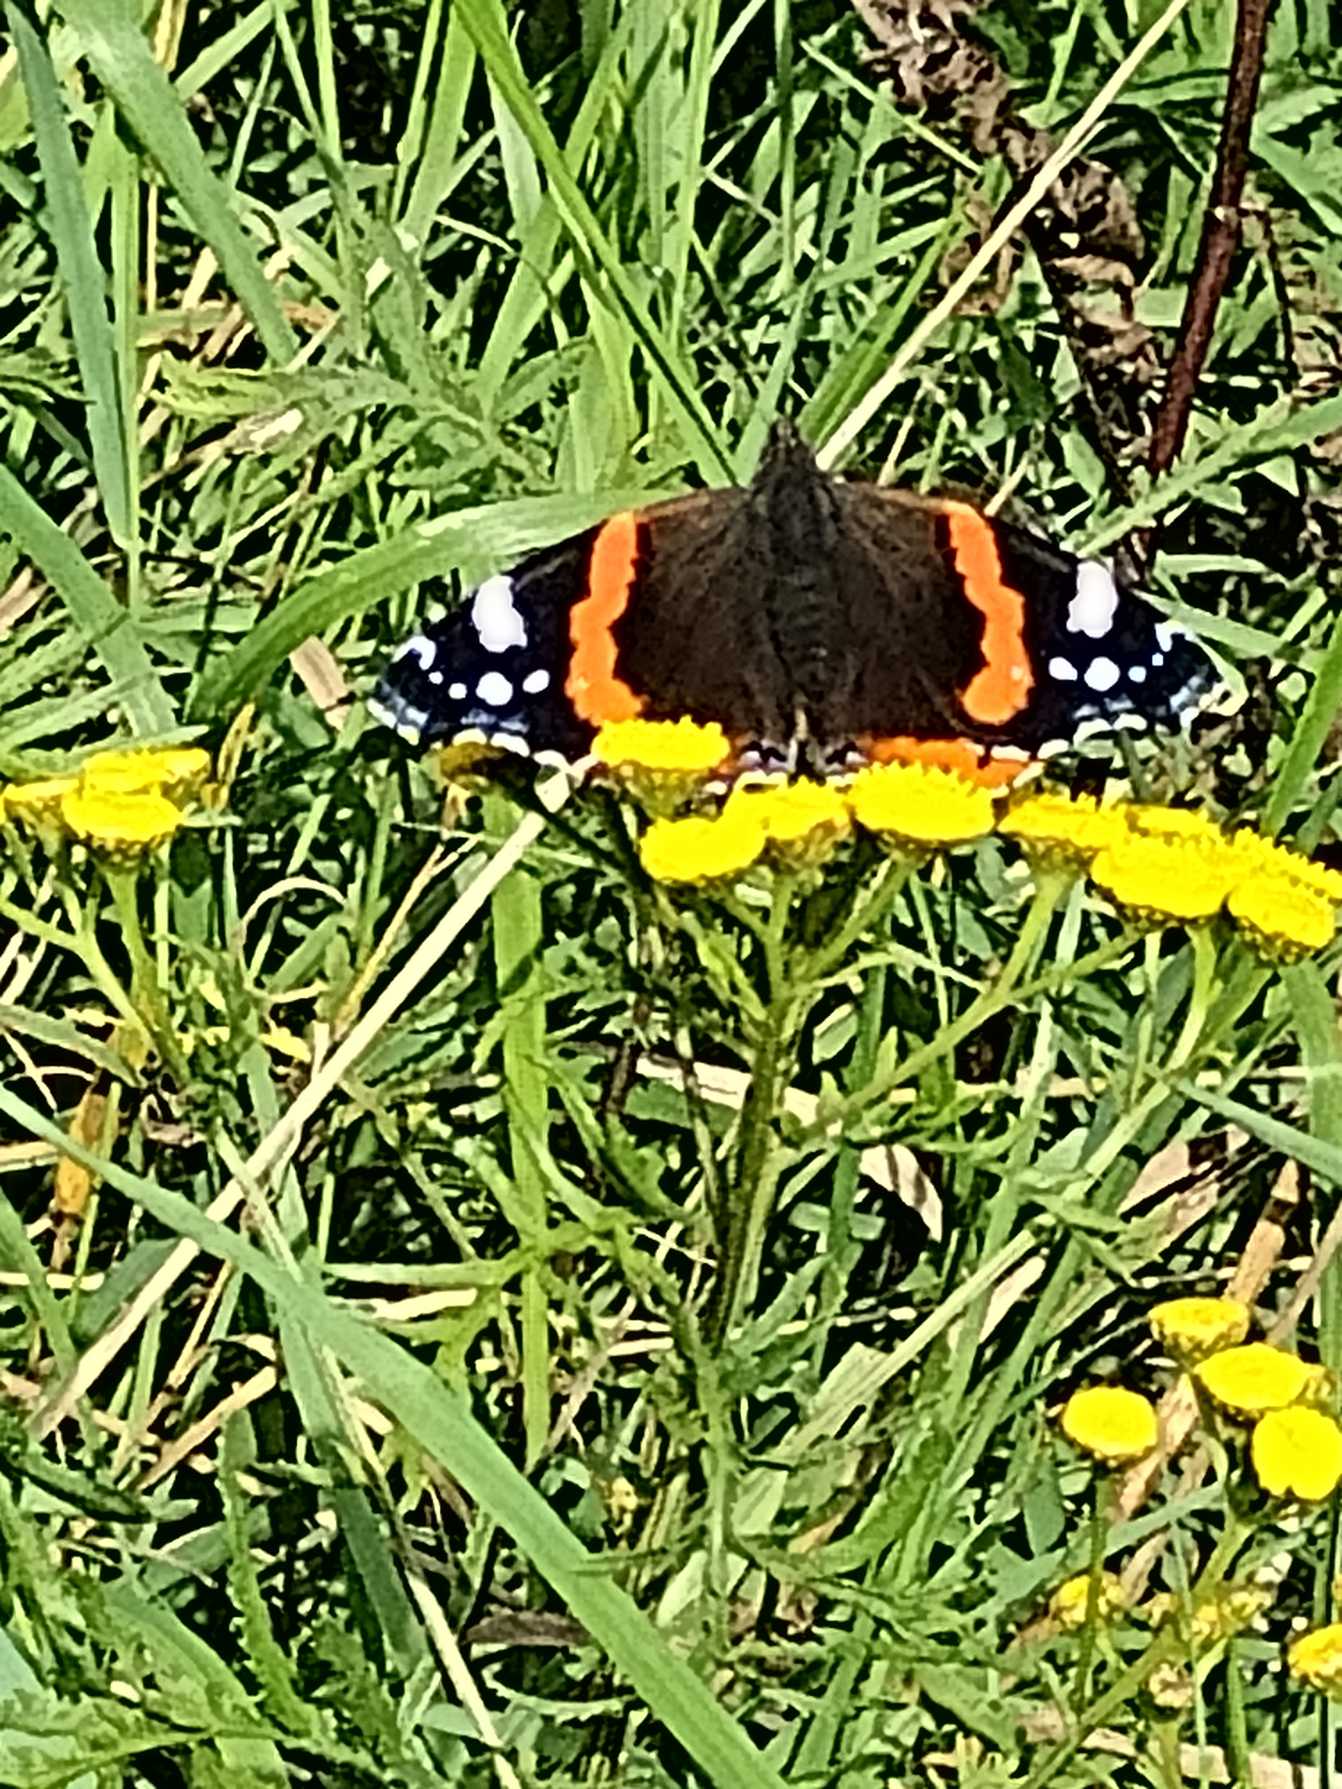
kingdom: Animalia
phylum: Arthropoda
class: Insecta
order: Lepidoptera
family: Nymphalidae
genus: Vanessa
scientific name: Vanessa atalanta
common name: Admiral
